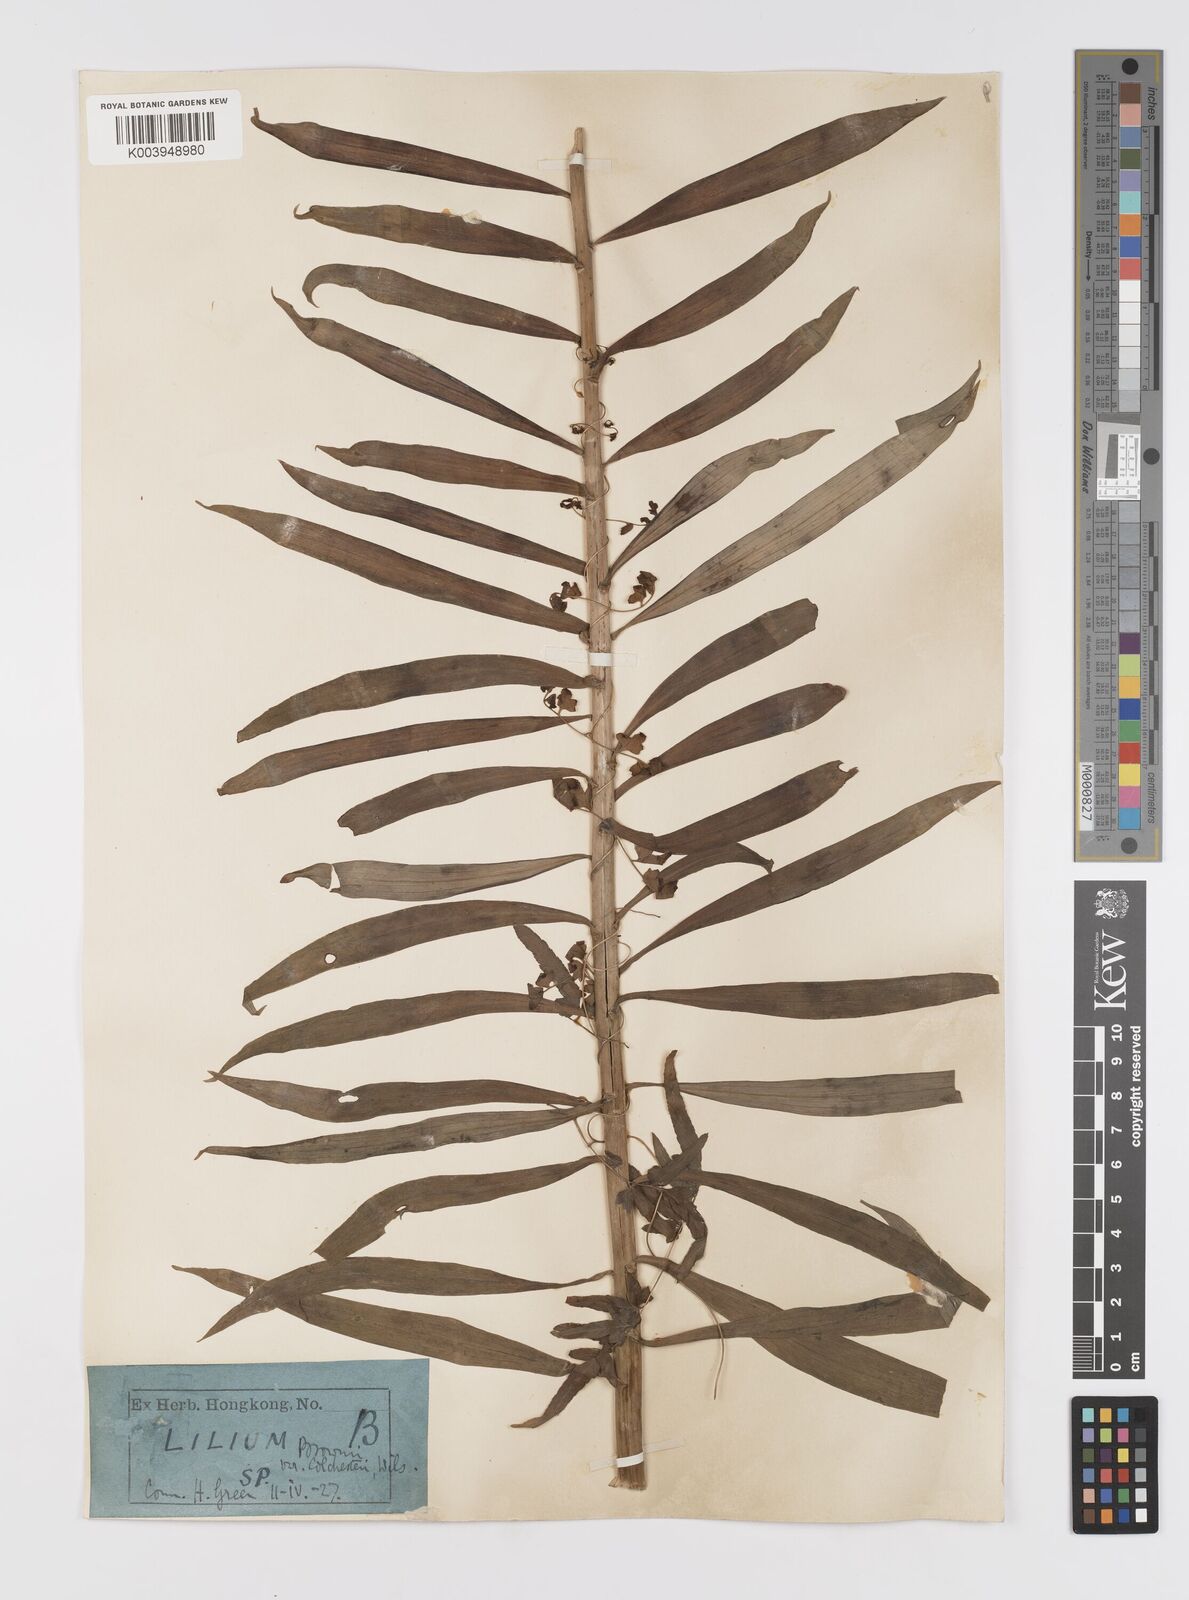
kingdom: Plantae
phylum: Tracheophyta
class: Liliopsida
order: Liliales
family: Liliaceae
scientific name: Liliaceae
